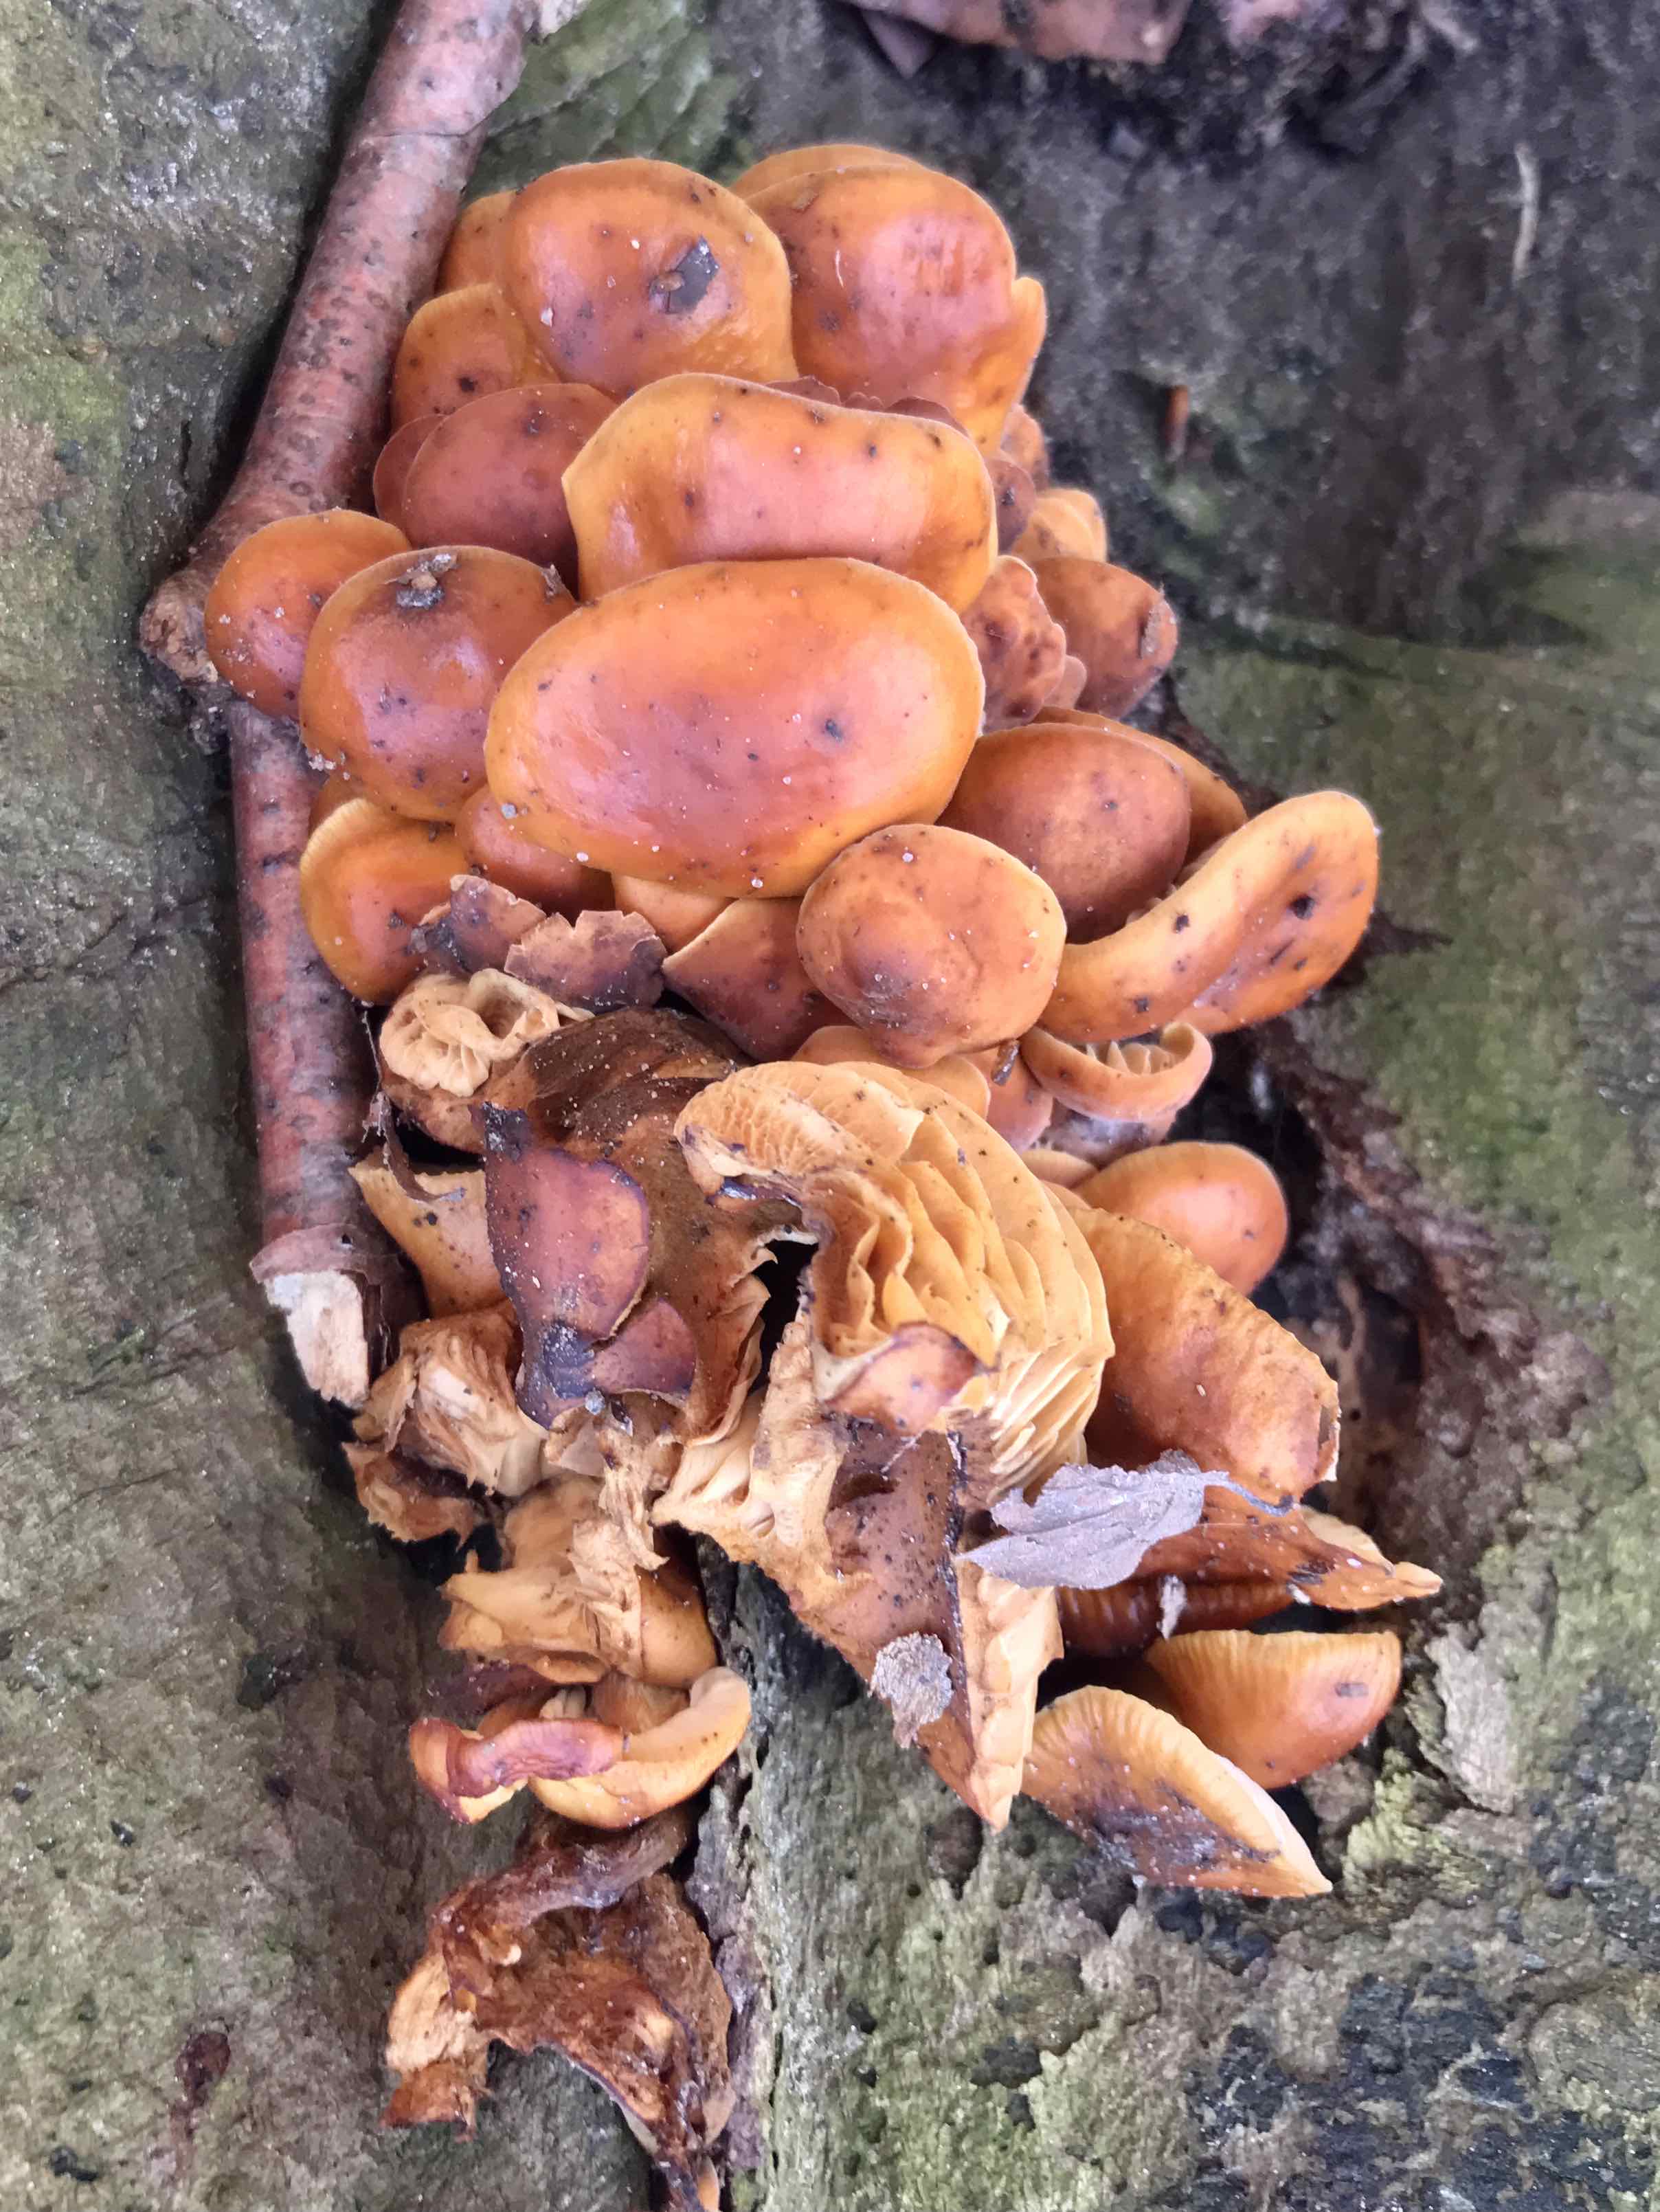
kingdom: Fungi
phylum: Basidiomycota
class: Agaricomycetes
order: Agaricales
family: Physalacriaceae
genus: Flammulina
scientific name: Flammulina velutipes
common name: gul fløjlsfod
